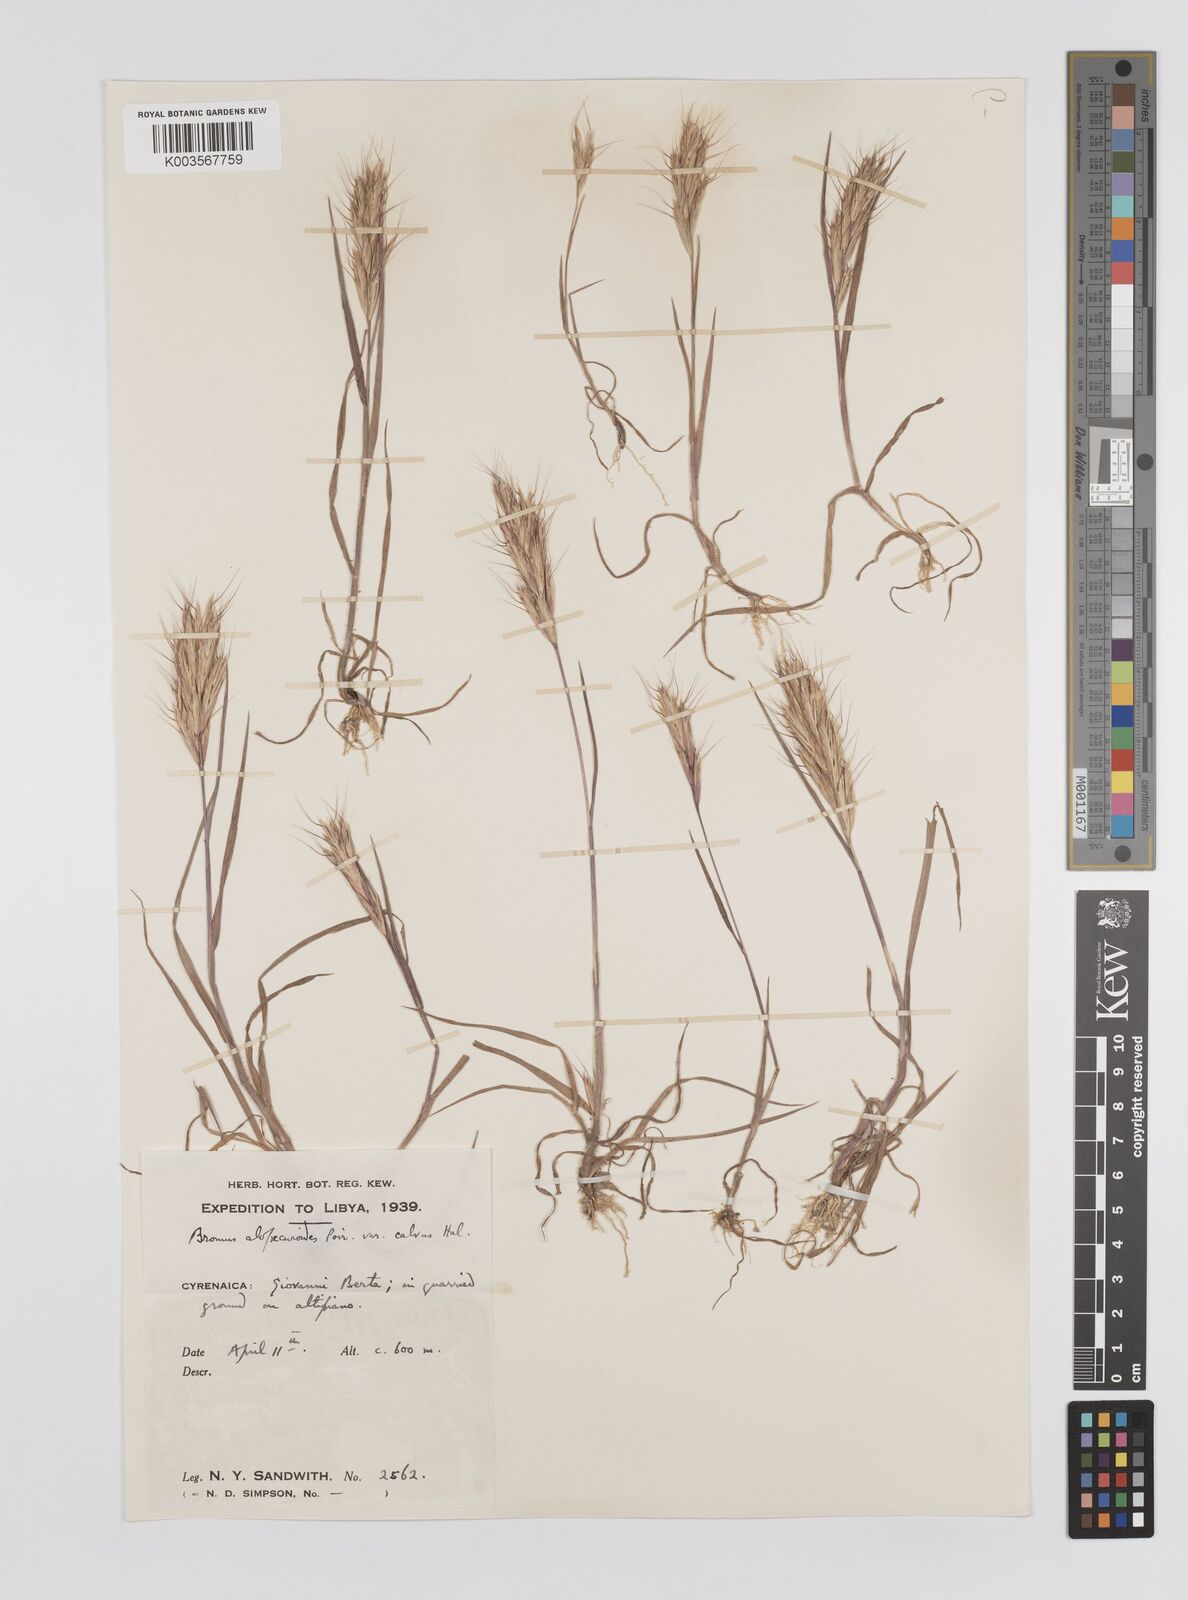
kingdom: Plantae
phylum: Tracheophyta
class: Liliopsida
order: Poales
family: Poaceae
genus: Bromus
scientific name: Bromus alopecuros
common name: Weedy brome
